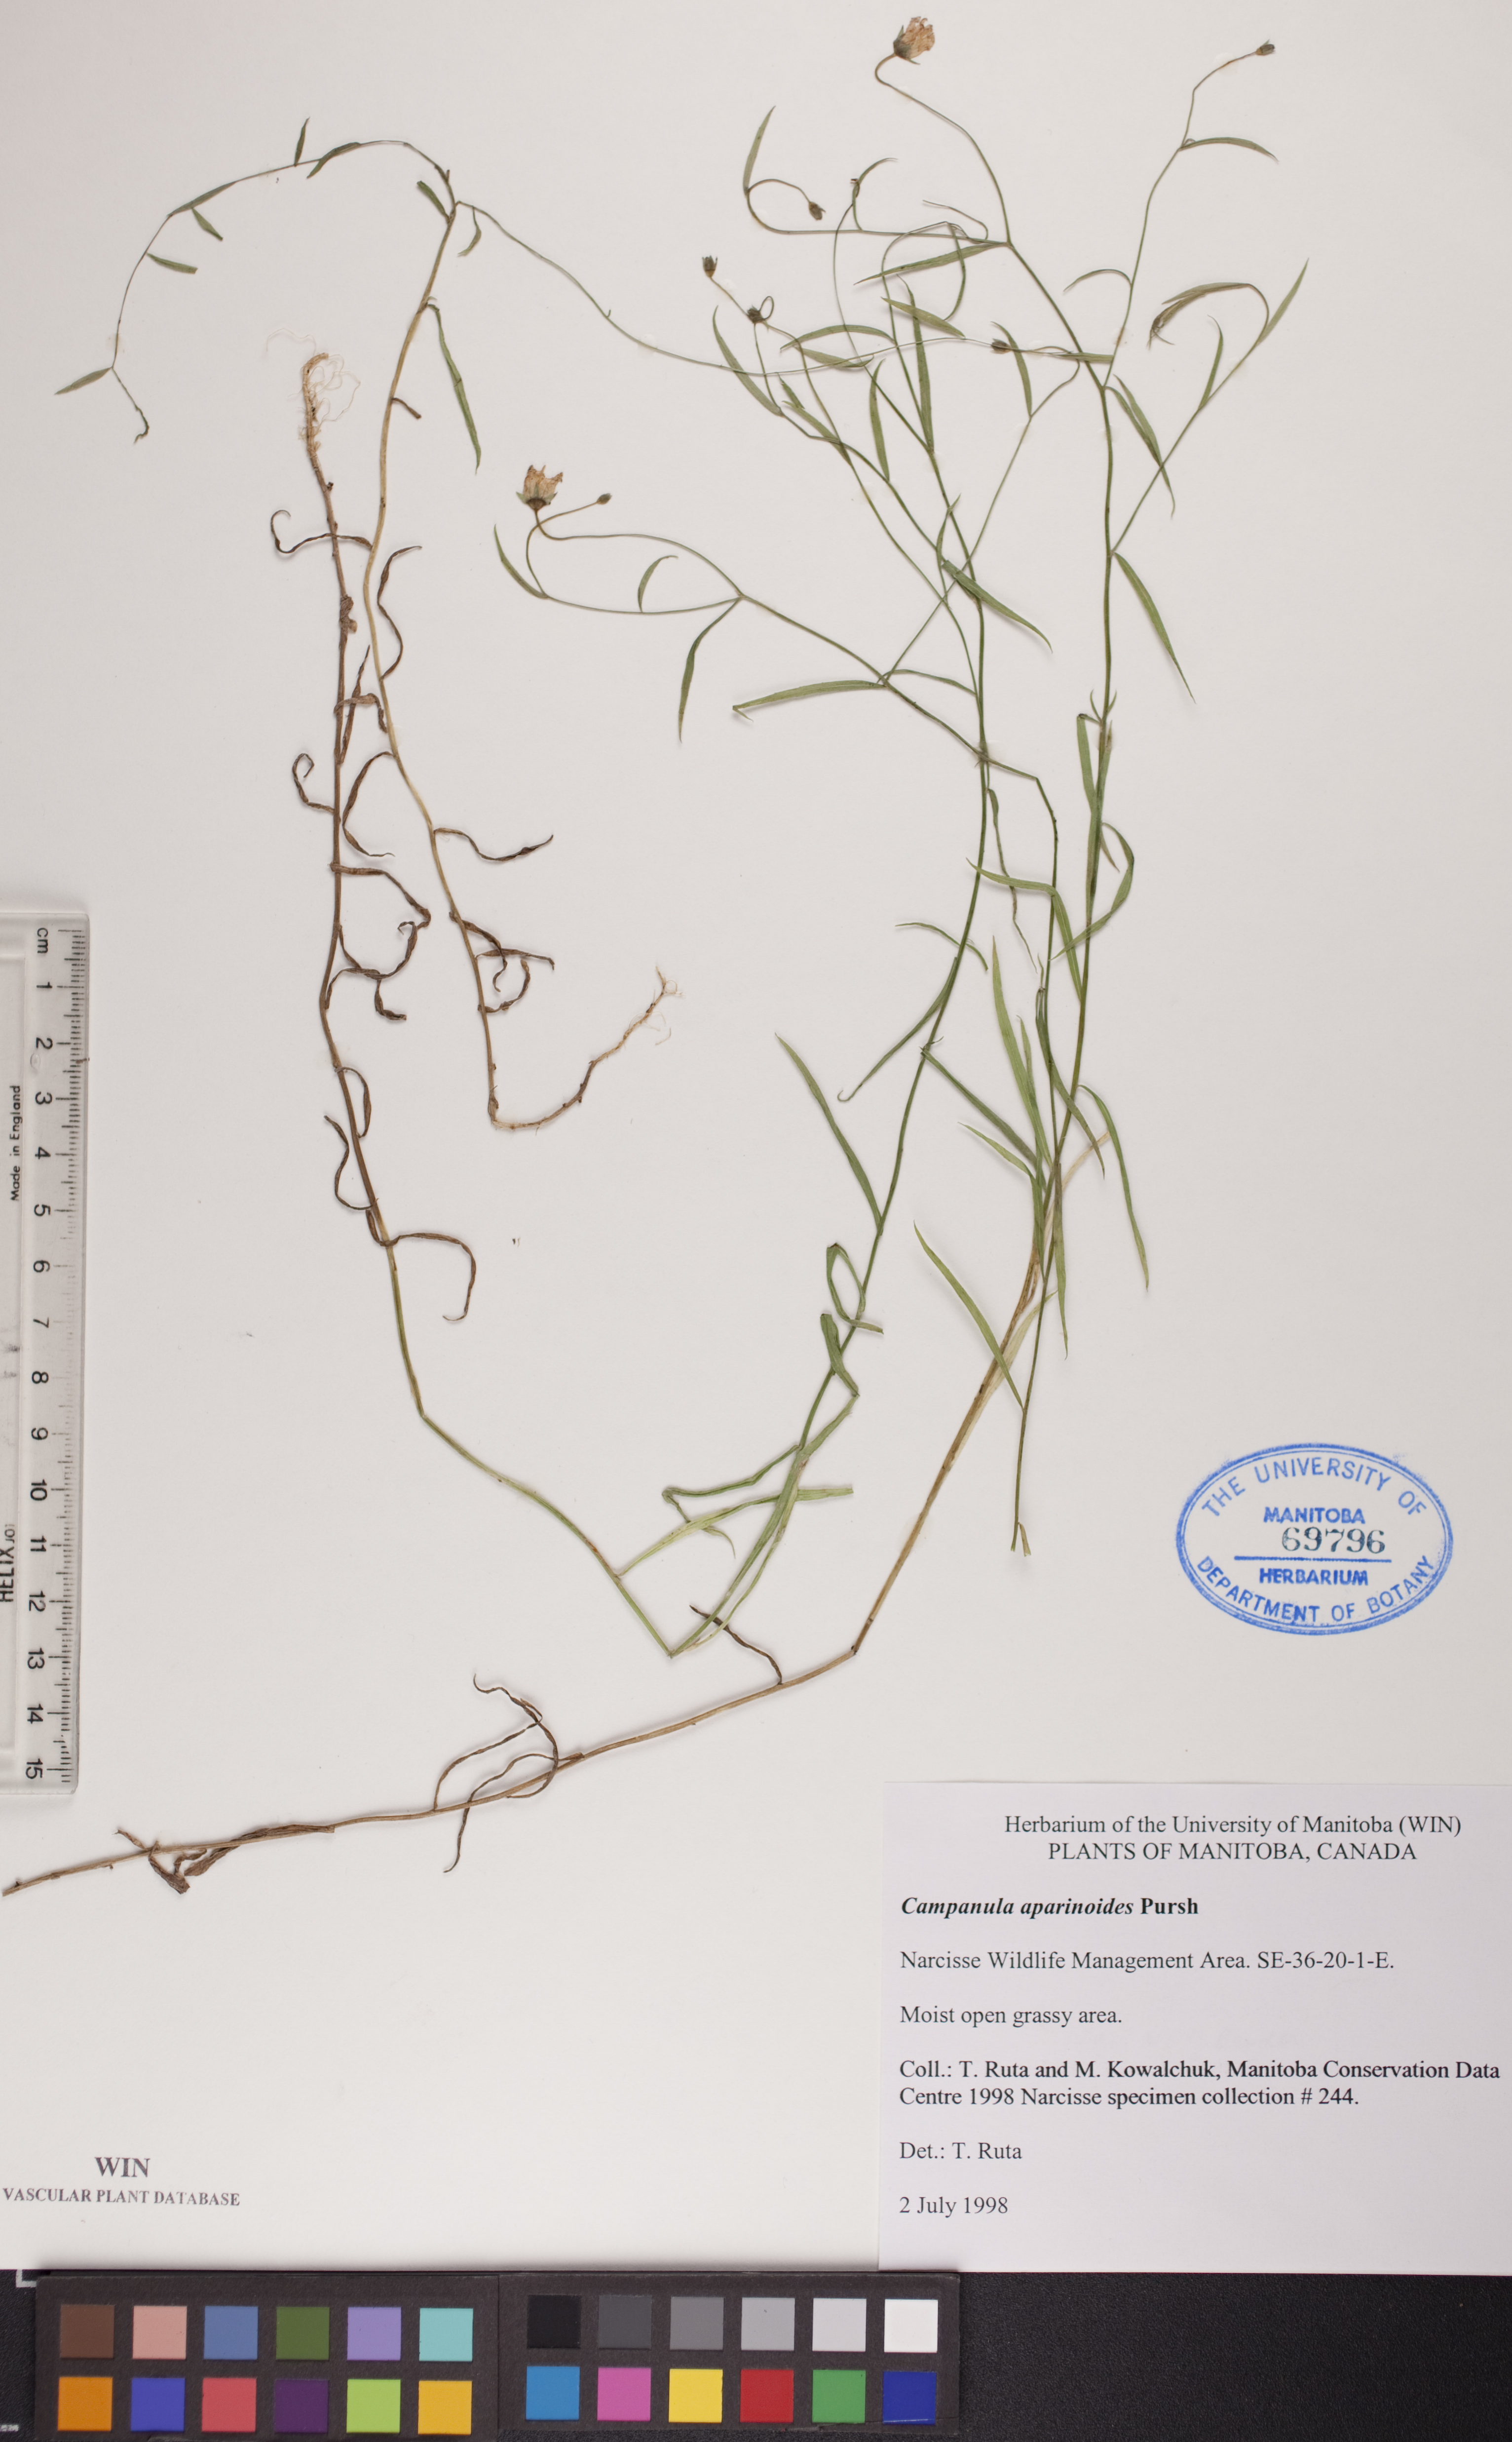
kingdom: Plantae
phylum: Tracheophyta
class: Magnoliopsida
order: Asterales
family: Campanulaceae
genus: Palustricodon
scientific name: Palustricodon aparinoides
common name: Bedstraw bellflower
